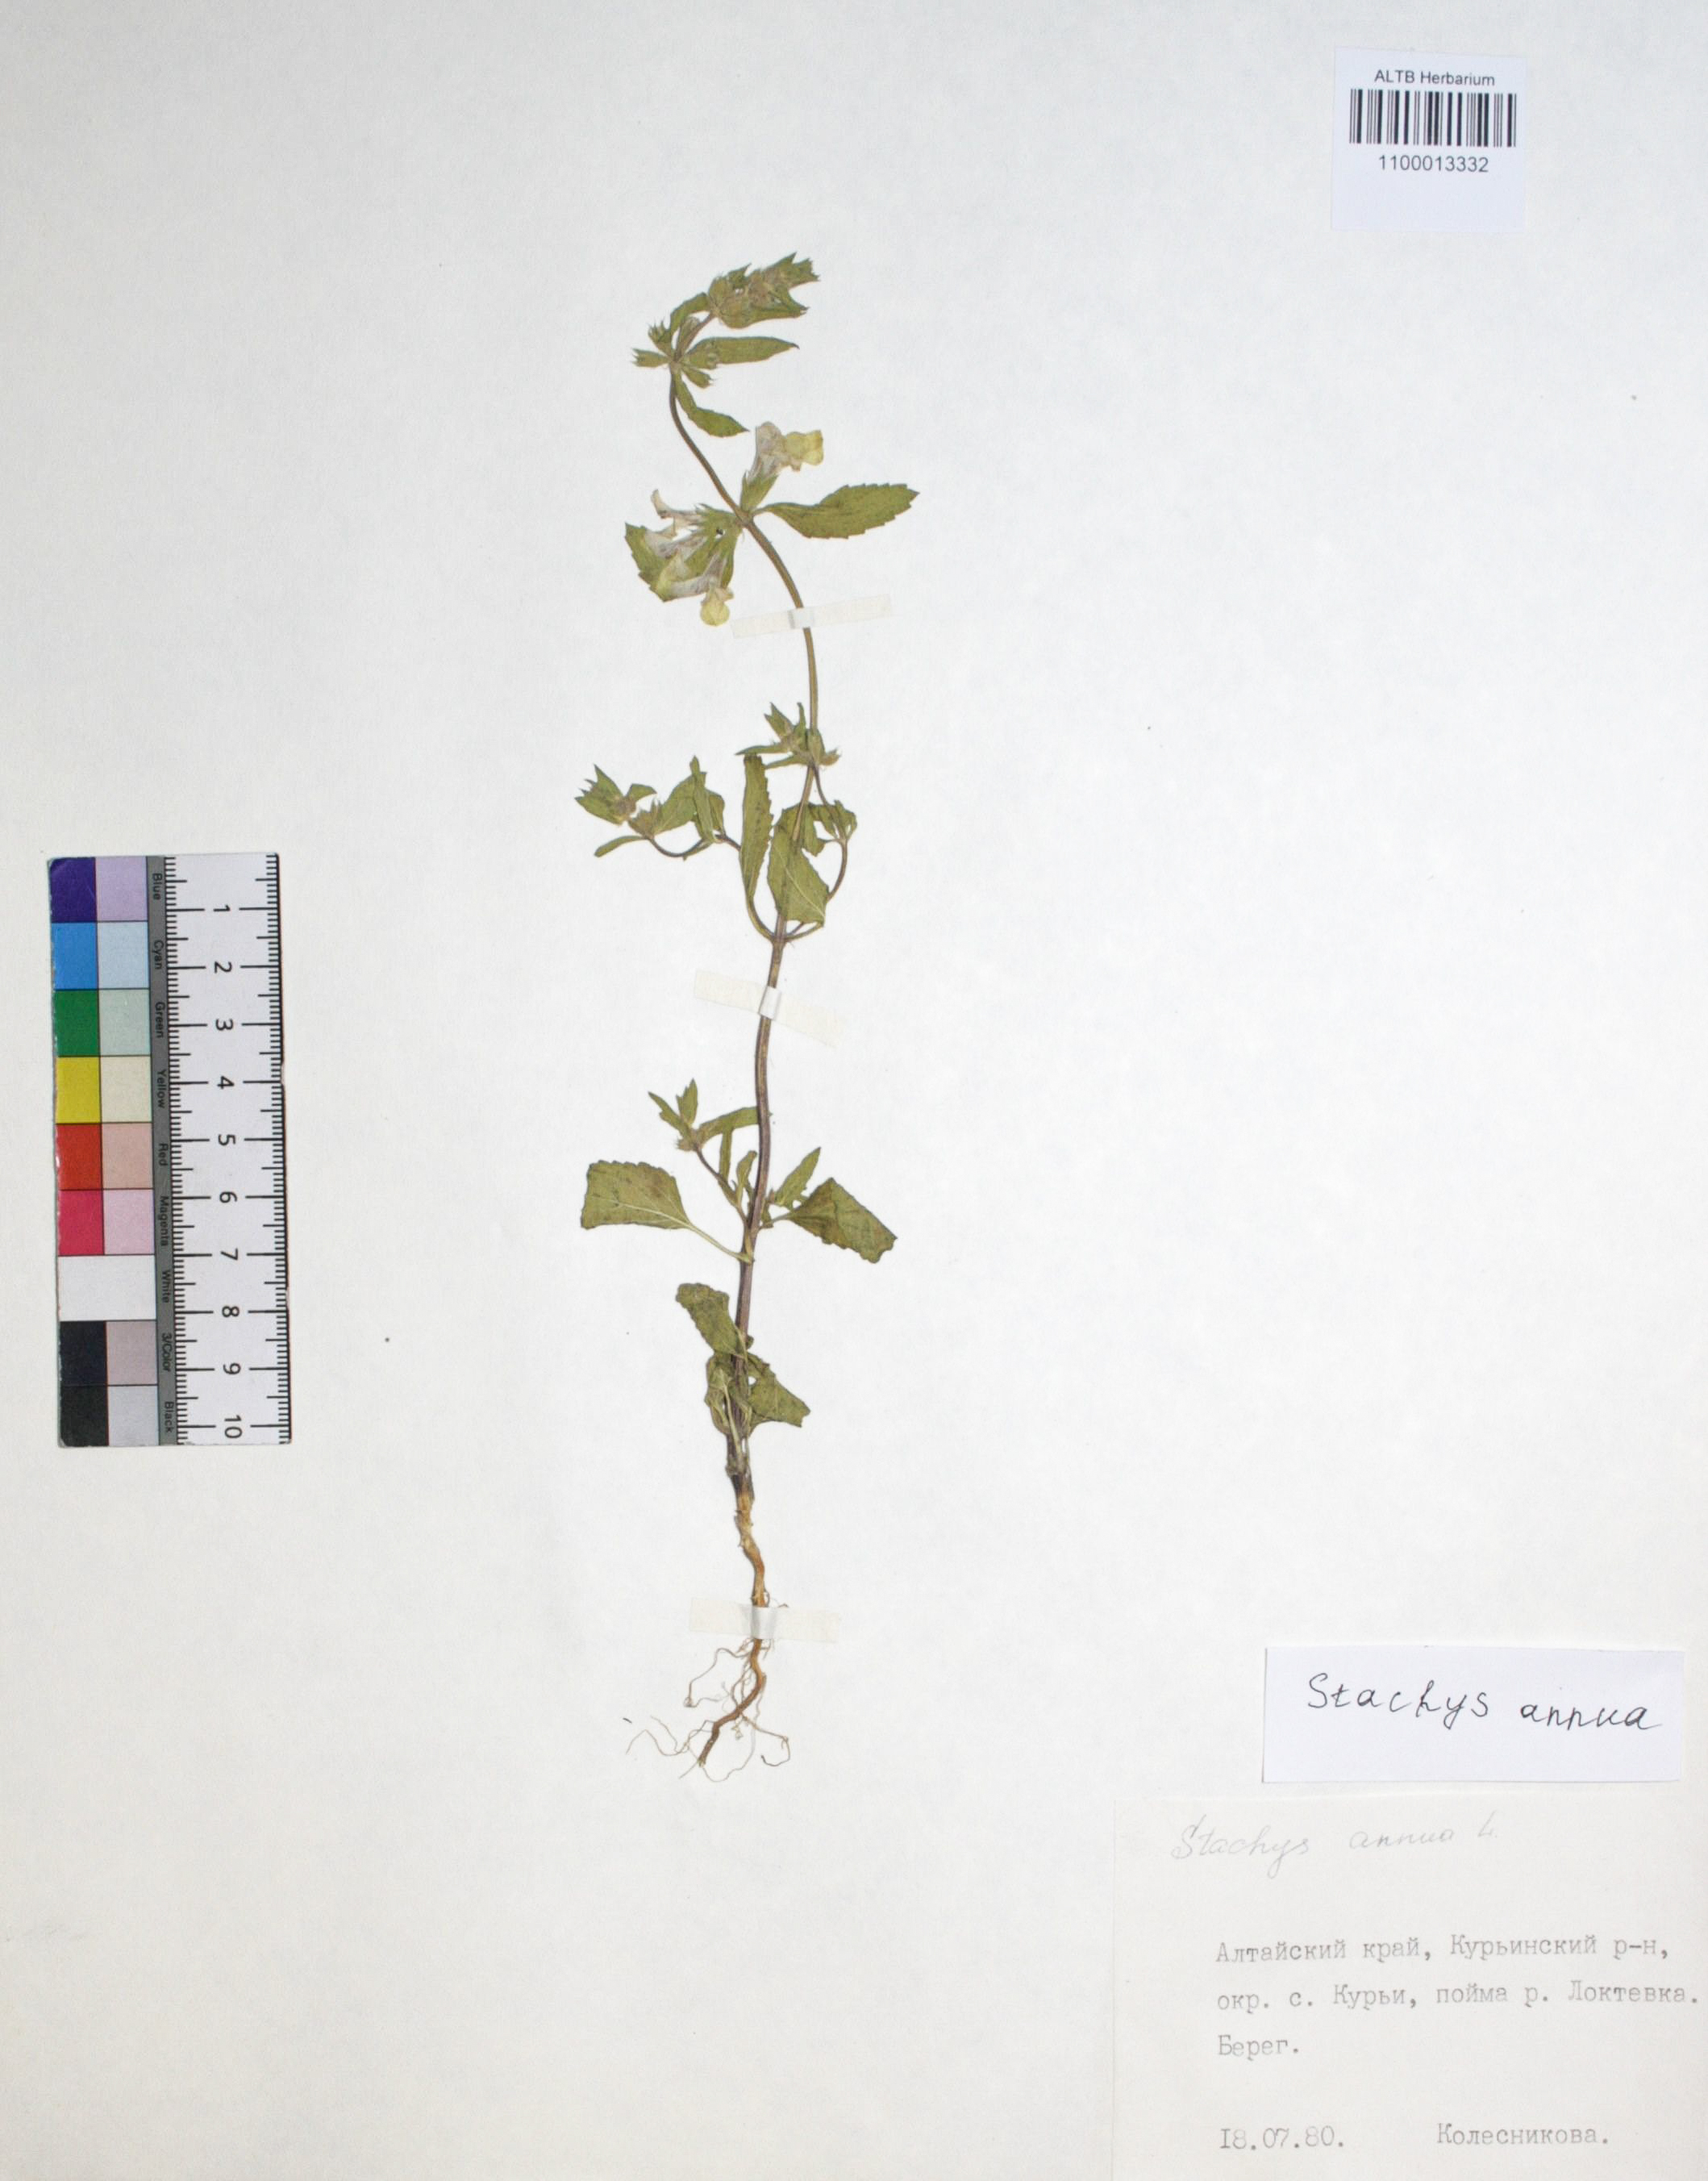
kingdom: Plantae
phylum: Tracheophyta
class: Magnoliopsida
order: Lamiales
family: Lamiaceae
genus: Stachys
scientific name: Stachys annua
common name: Annual yellow-woundwort
